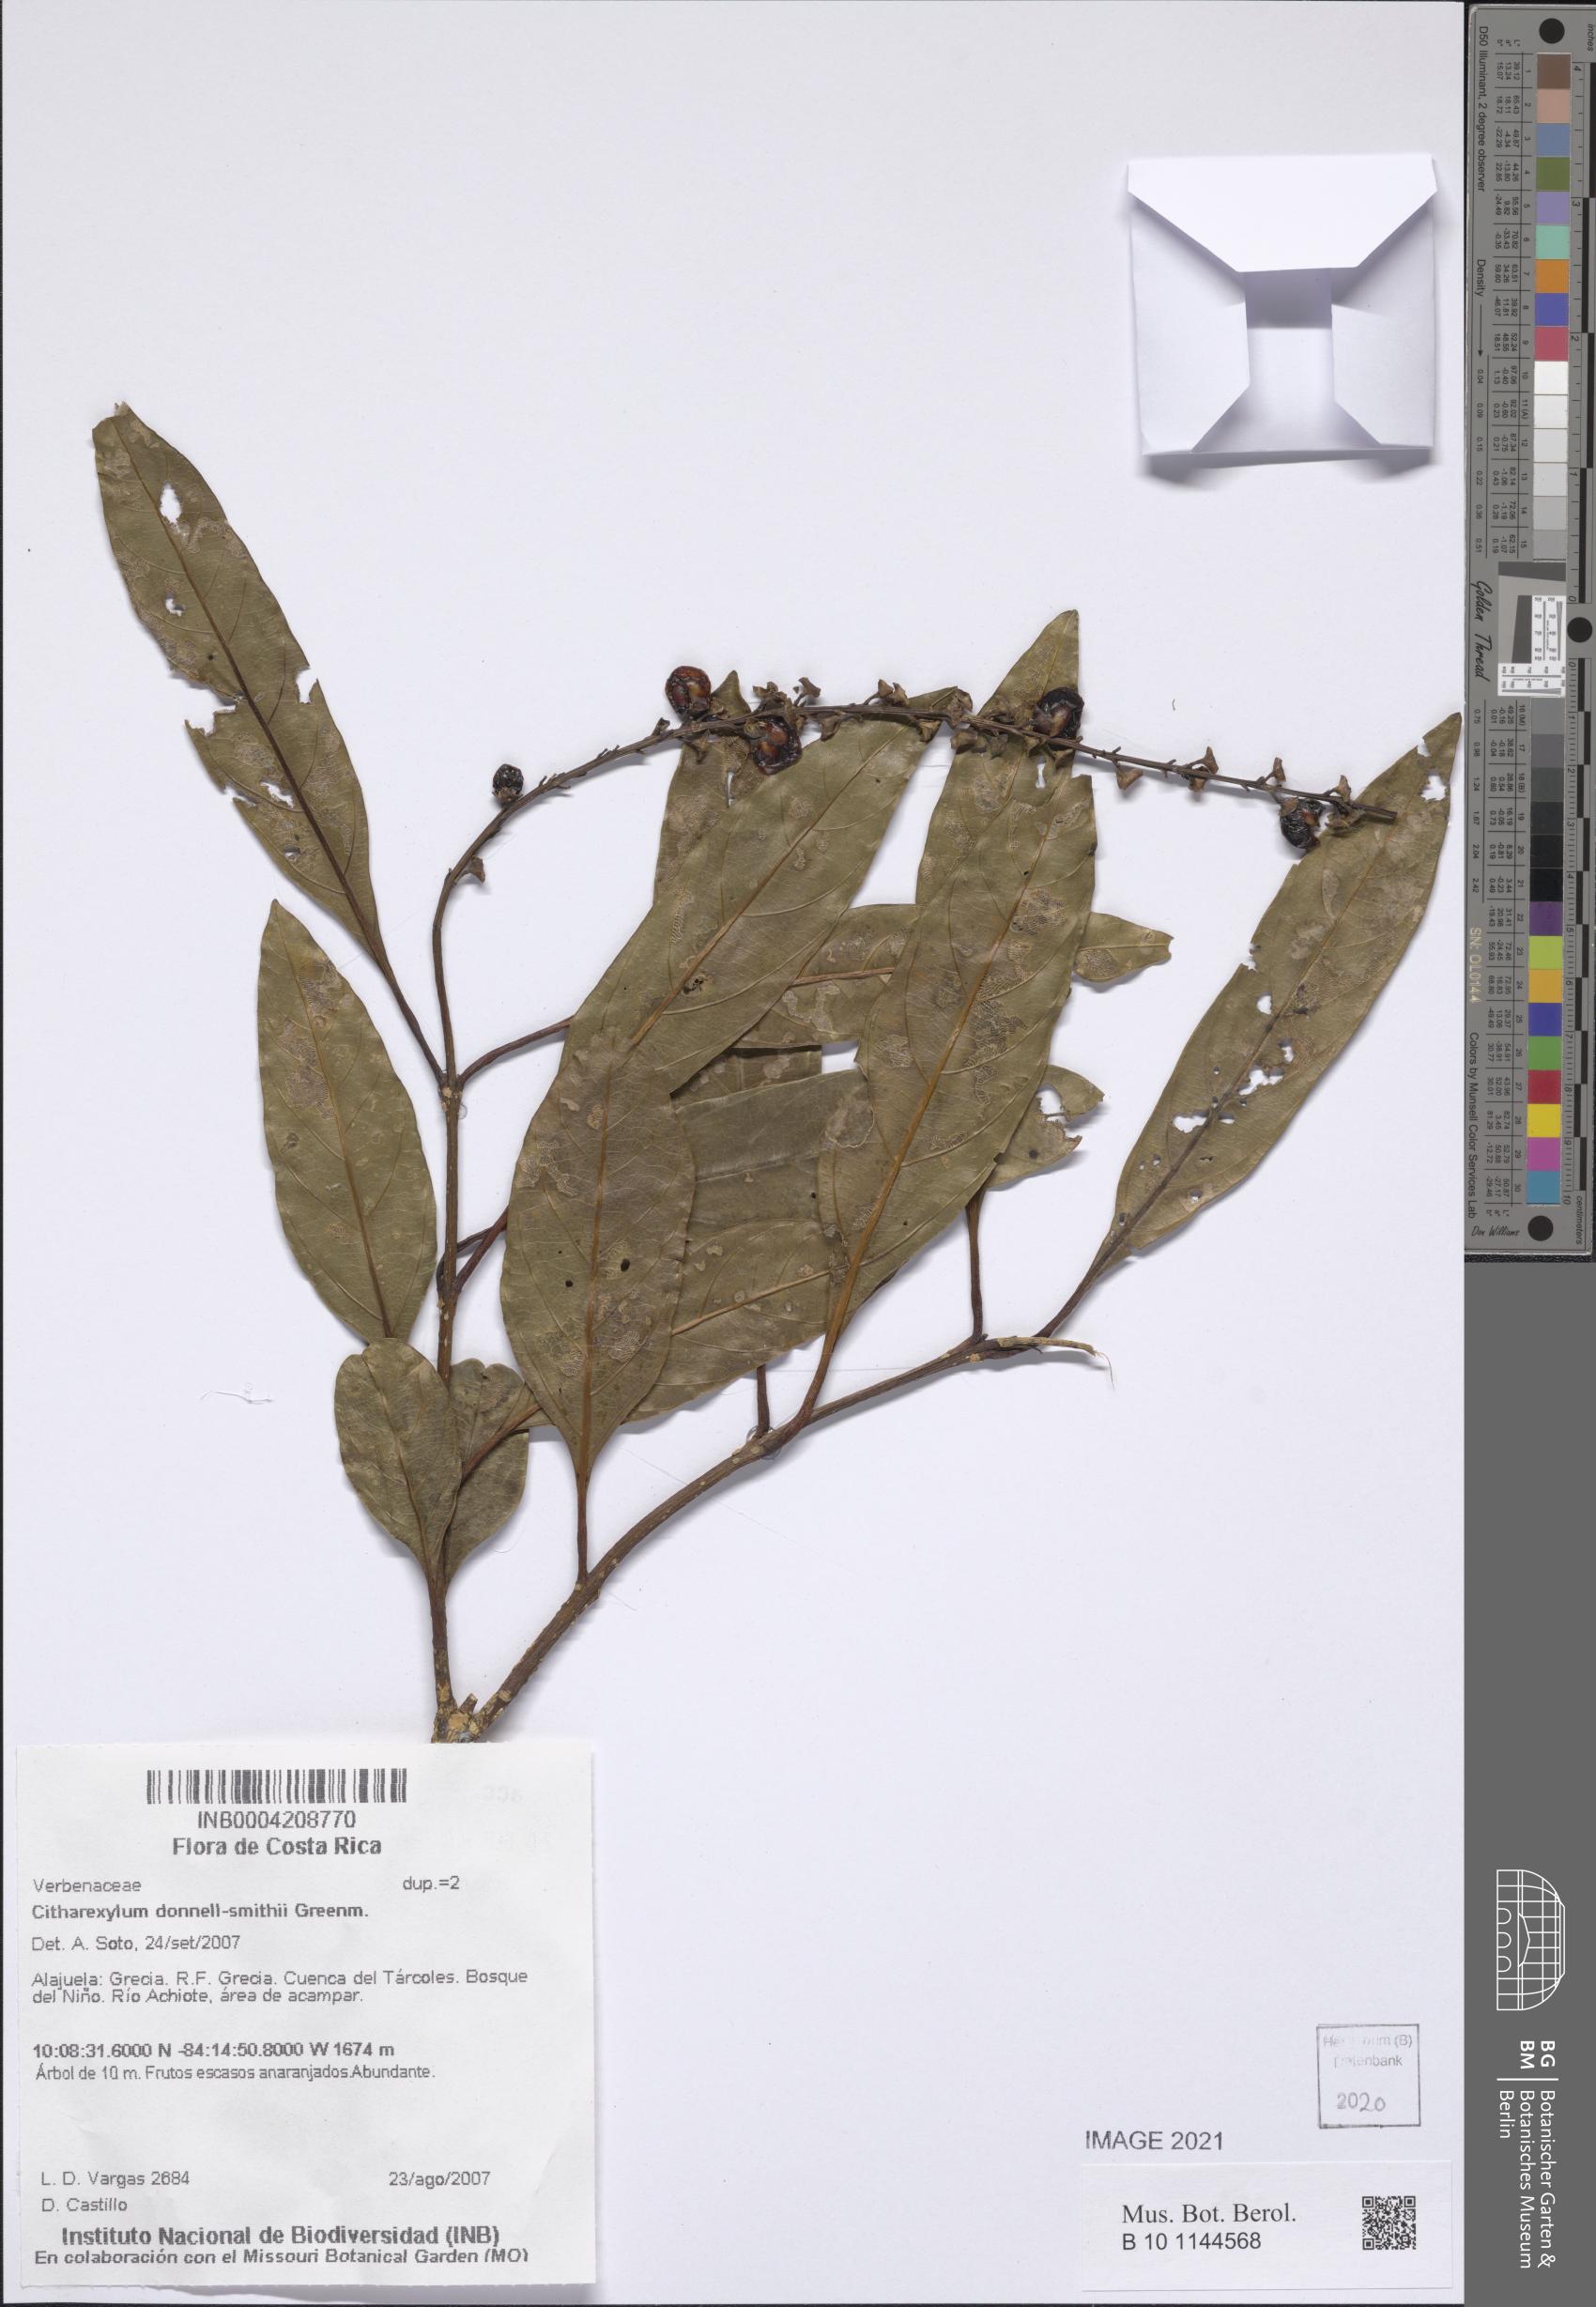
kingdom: Plantae
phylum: Tracheophyta
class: Magnoliopsida
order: Lamiales
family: Verbenaceae
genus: Citharexylum
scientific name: Citharexylum donnell-smithii
